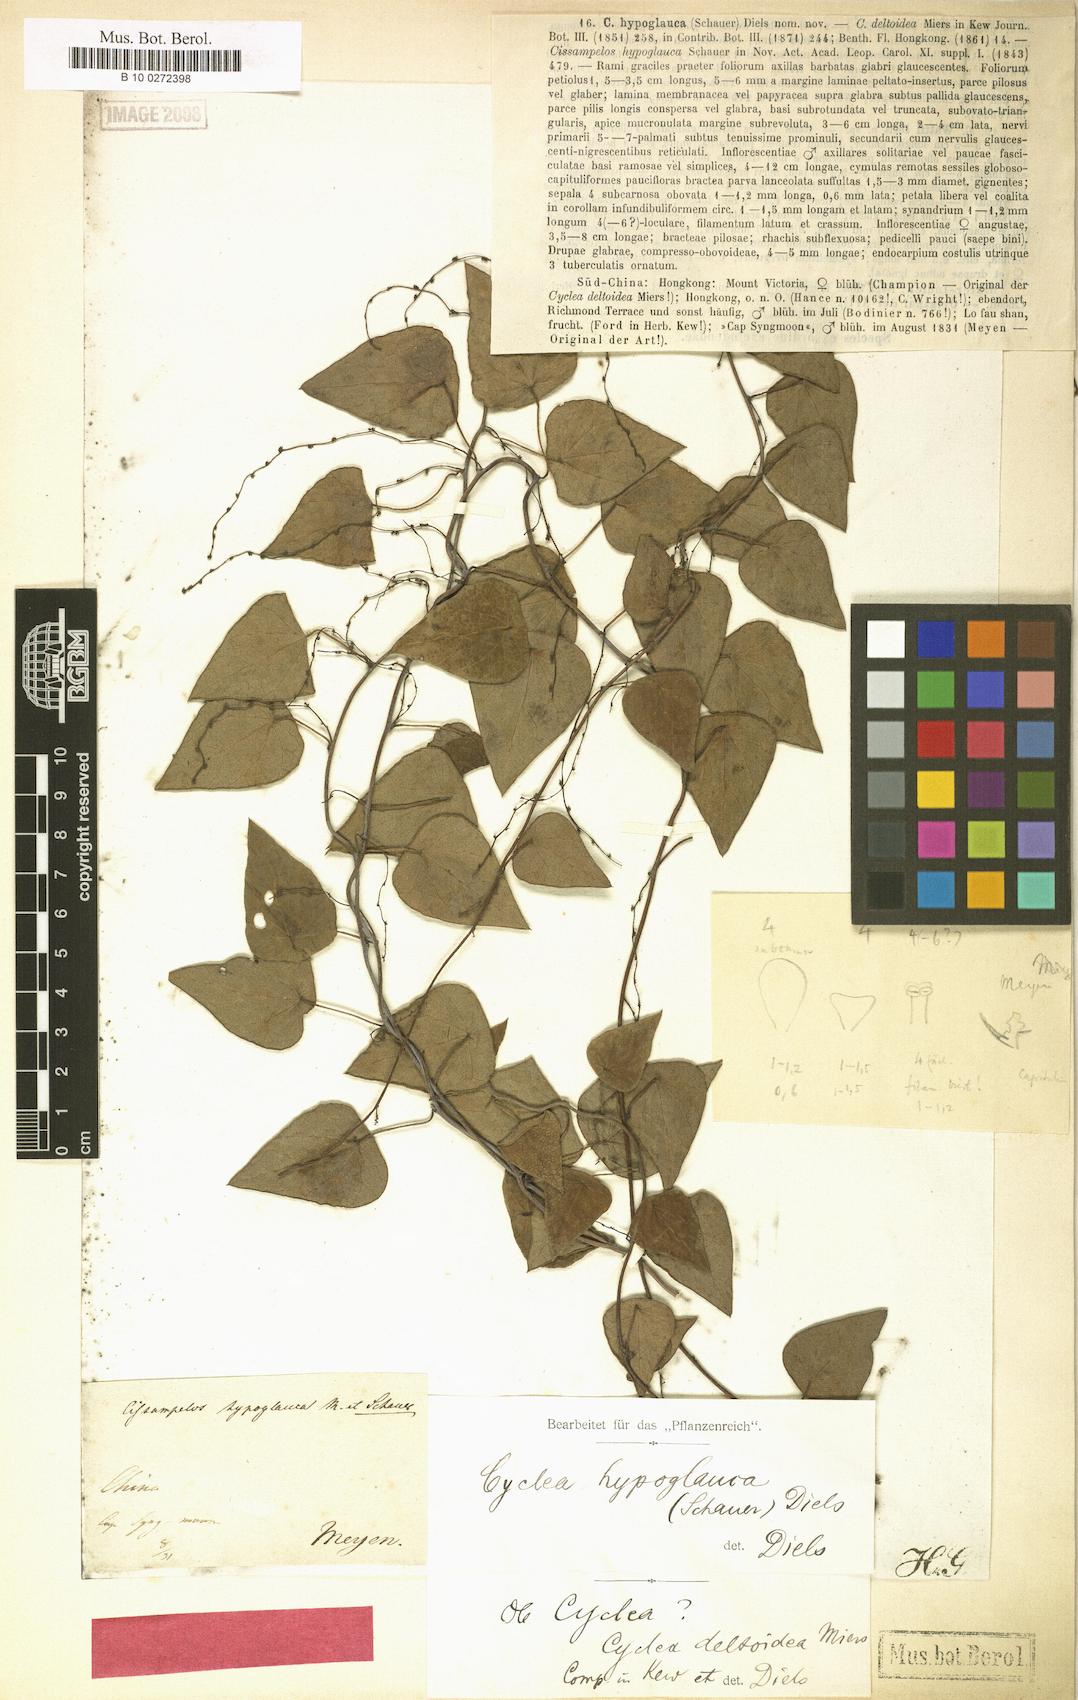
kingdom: Plantae
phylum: Tracheophyta
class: Magnoliopsida
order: Ranunculales
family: Menispermaceae
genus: Cyclea
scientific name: Cyclea hypoglauca
